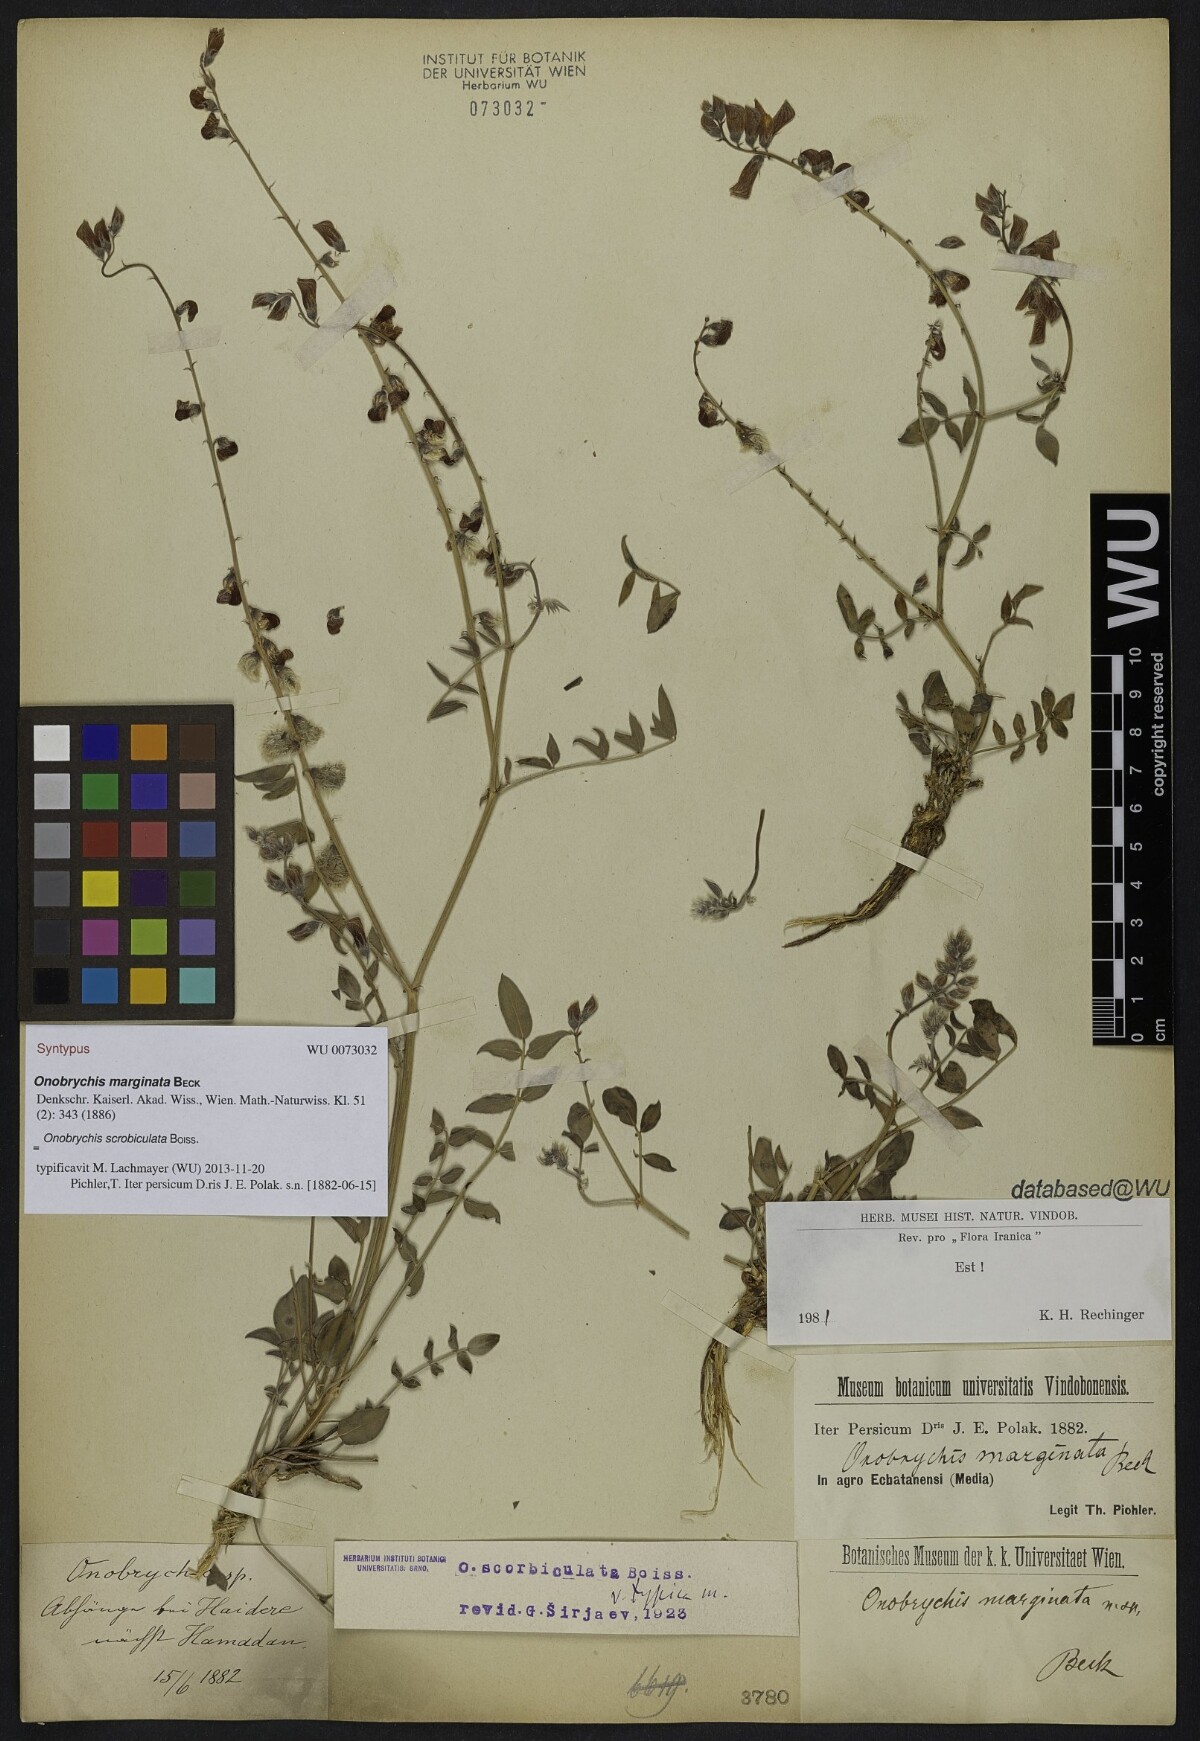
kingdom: Plantae
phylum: Tracheophyta
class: Magnoliopsida
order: Fabales
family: Fabaceae
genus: Onobrychis
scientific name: Onobrychis scrobiculata
